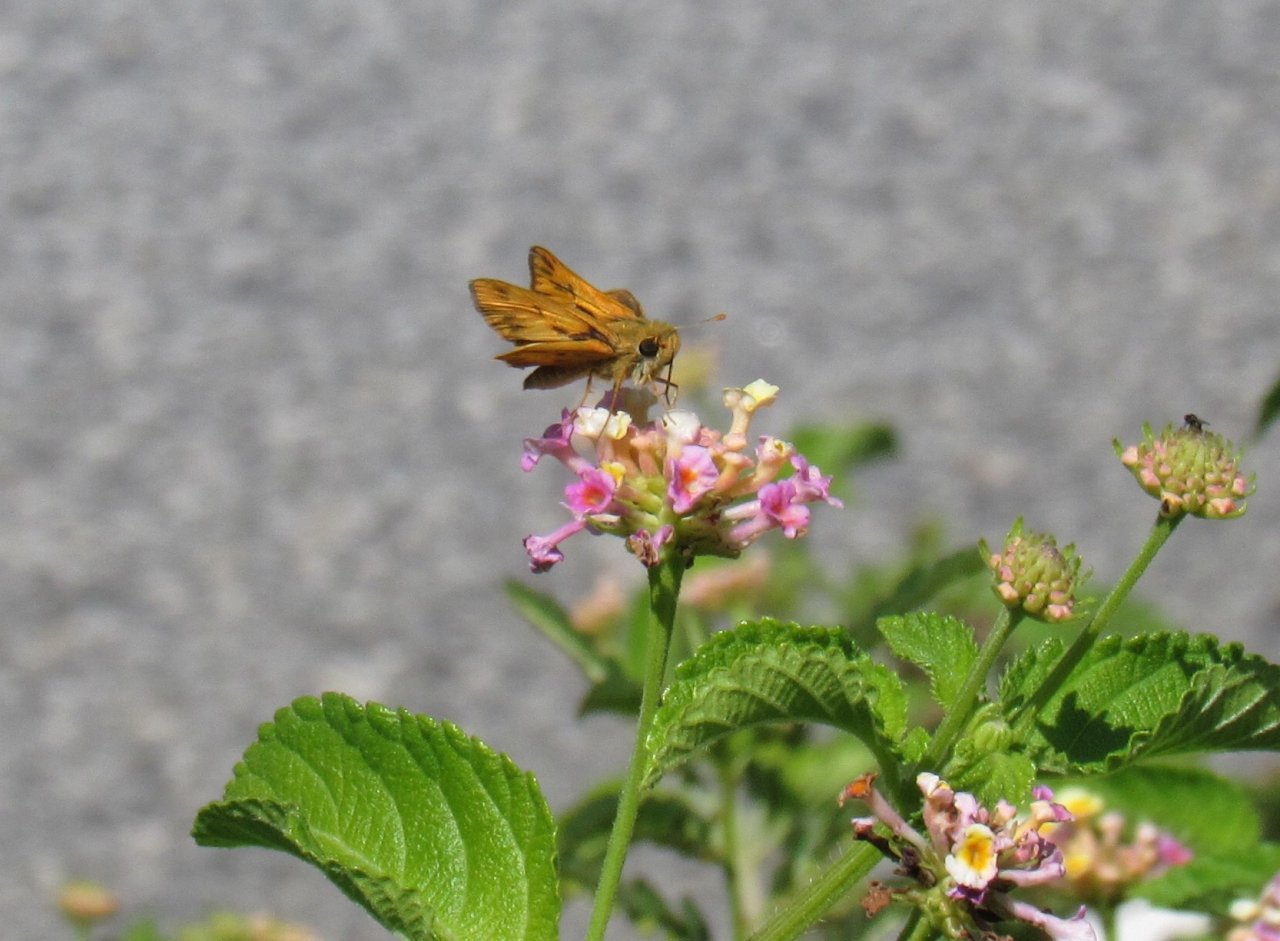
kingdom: Animalia
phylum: Arthropoda
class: Insecta
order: Lepidoptera
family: Hesperiidae
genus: Hylephila
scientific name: Hylephila phyleus
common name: Fiery Skipper
